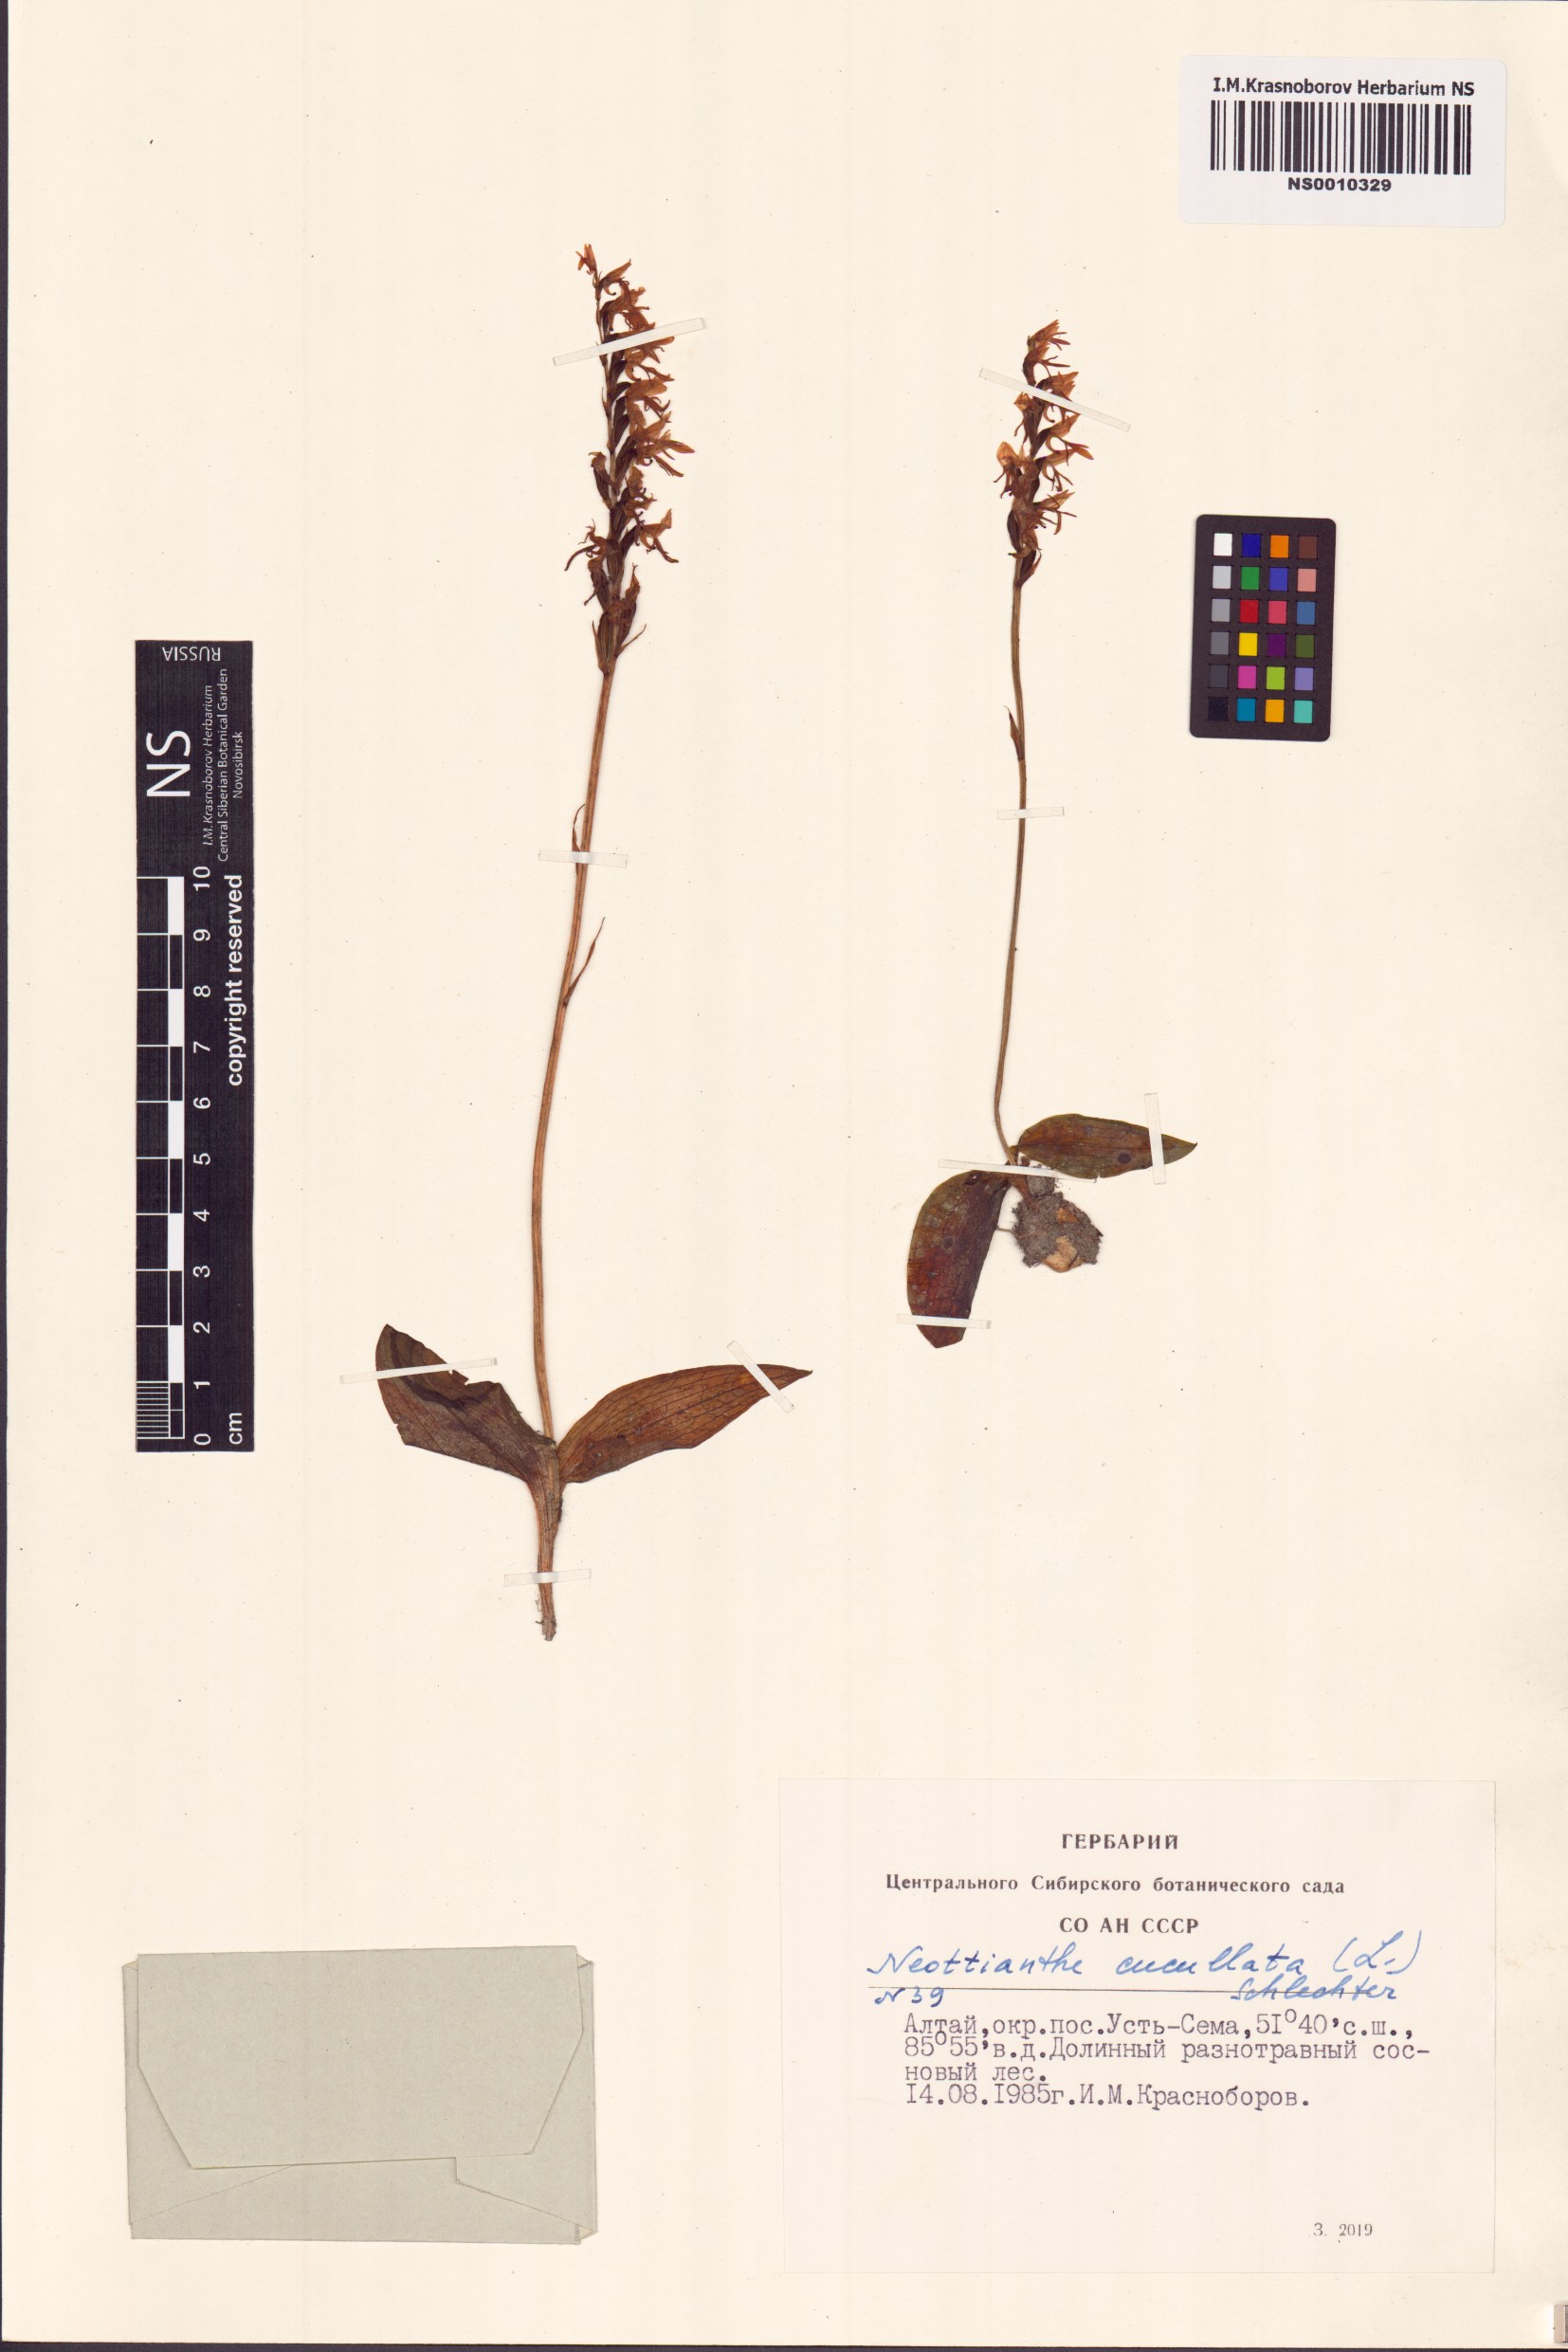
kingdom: Plantae
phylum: Tracheophyta
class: Liliopsida
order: Asparagales
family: Orchidaceae
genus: Hemipilia
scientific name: Hemipilia cucullata
